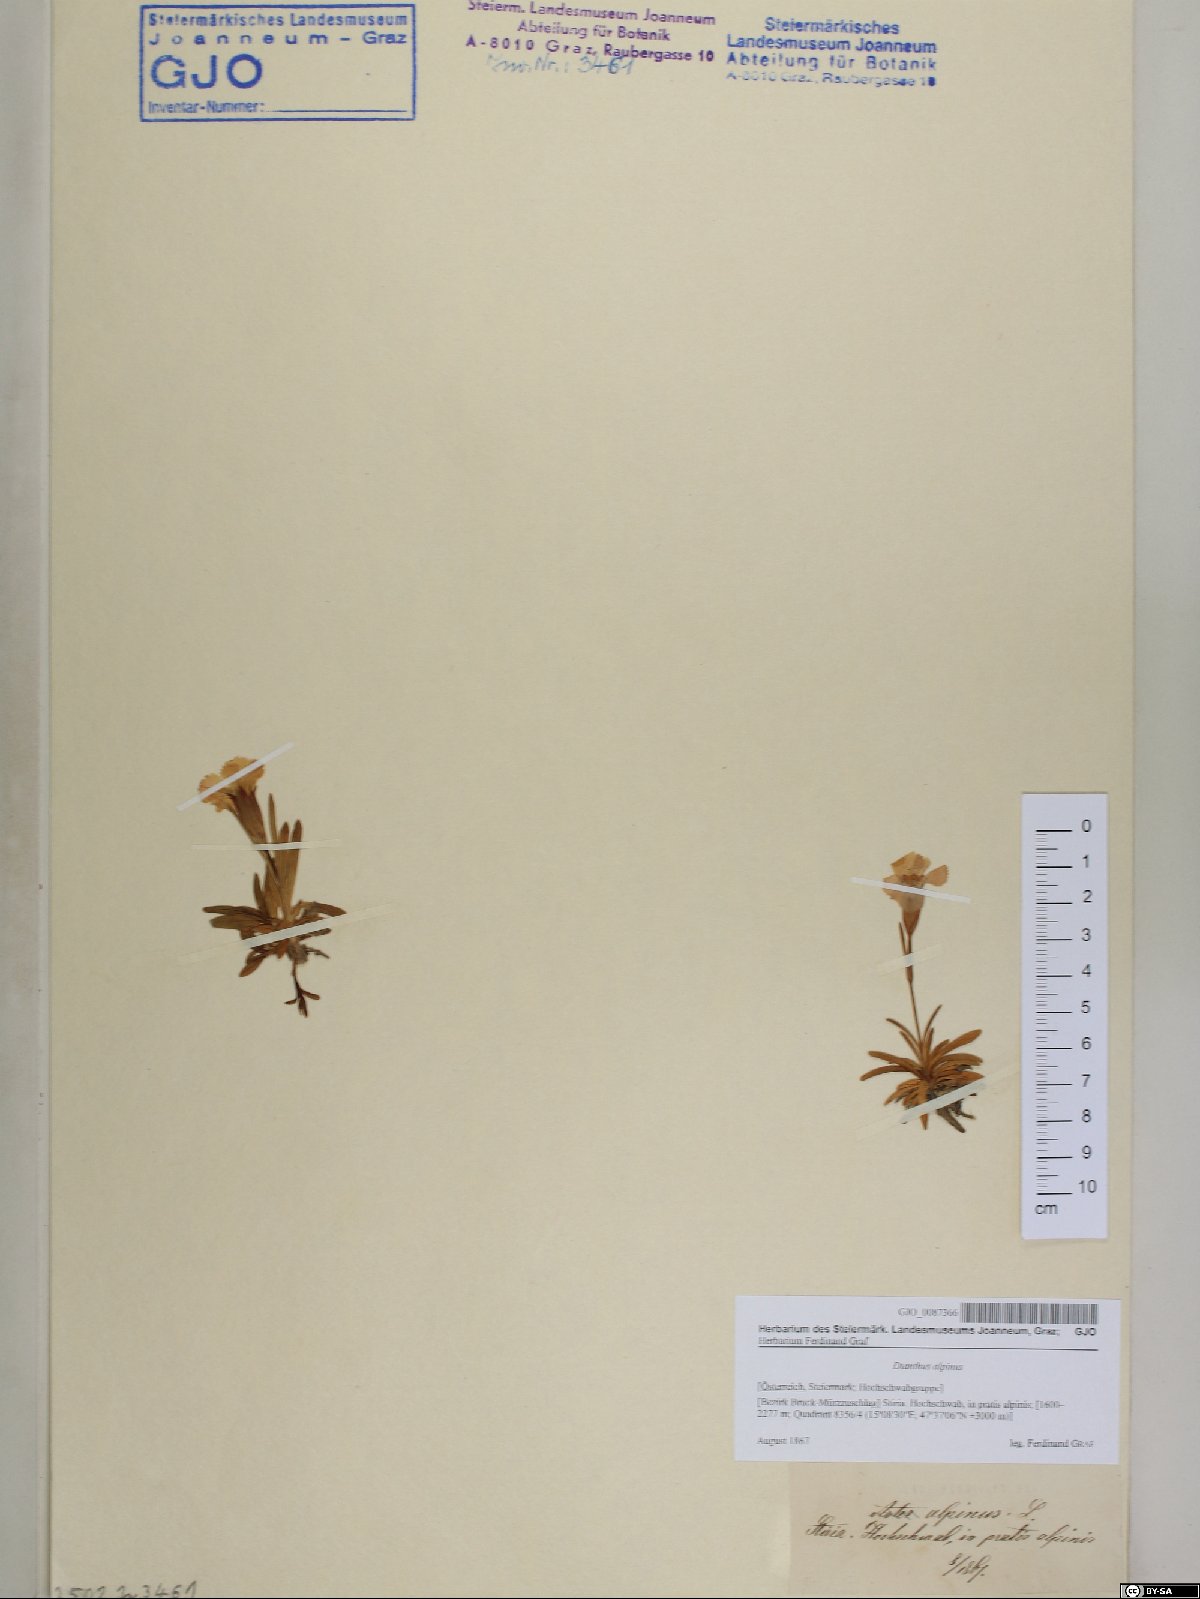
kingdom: Plantae
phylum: Tracheophyta
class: Magnoliopsida
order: Caryophyllales
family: Caryophyllaceae
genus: Dianthus
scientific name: Dianthus alpinus
